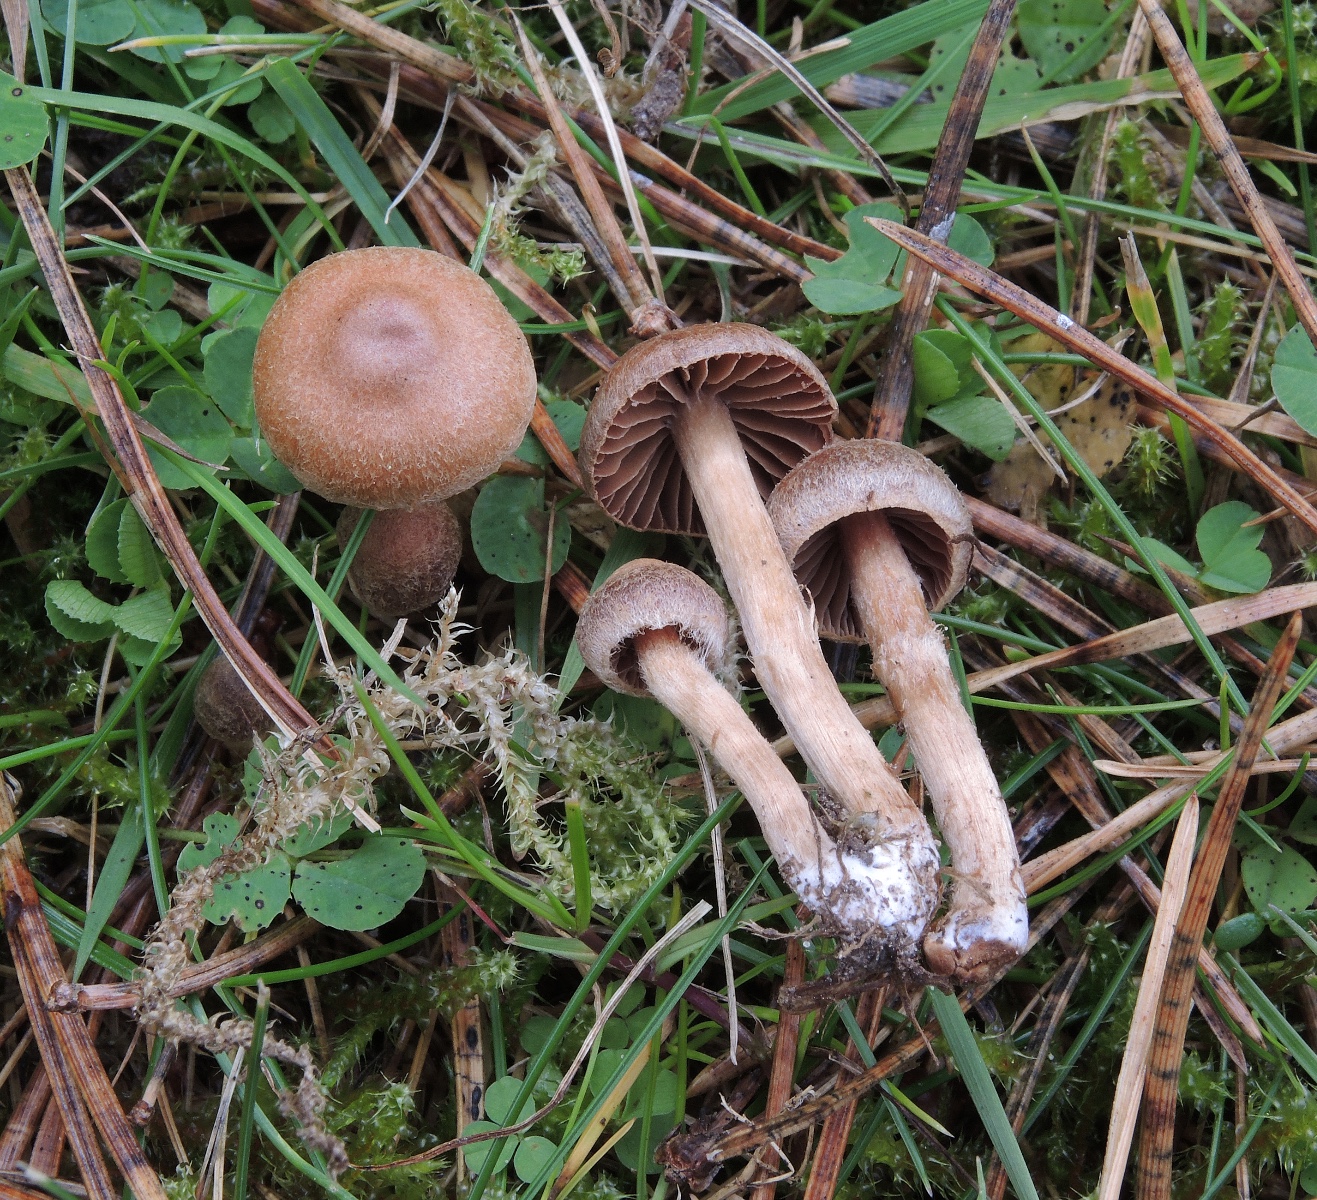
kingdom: Fungi
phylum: Basidiomycota
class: Agaricomycetes
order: Agaricales
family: Cortinariaceae
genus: Cortinarius
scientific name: Cortinarius denigratoides
